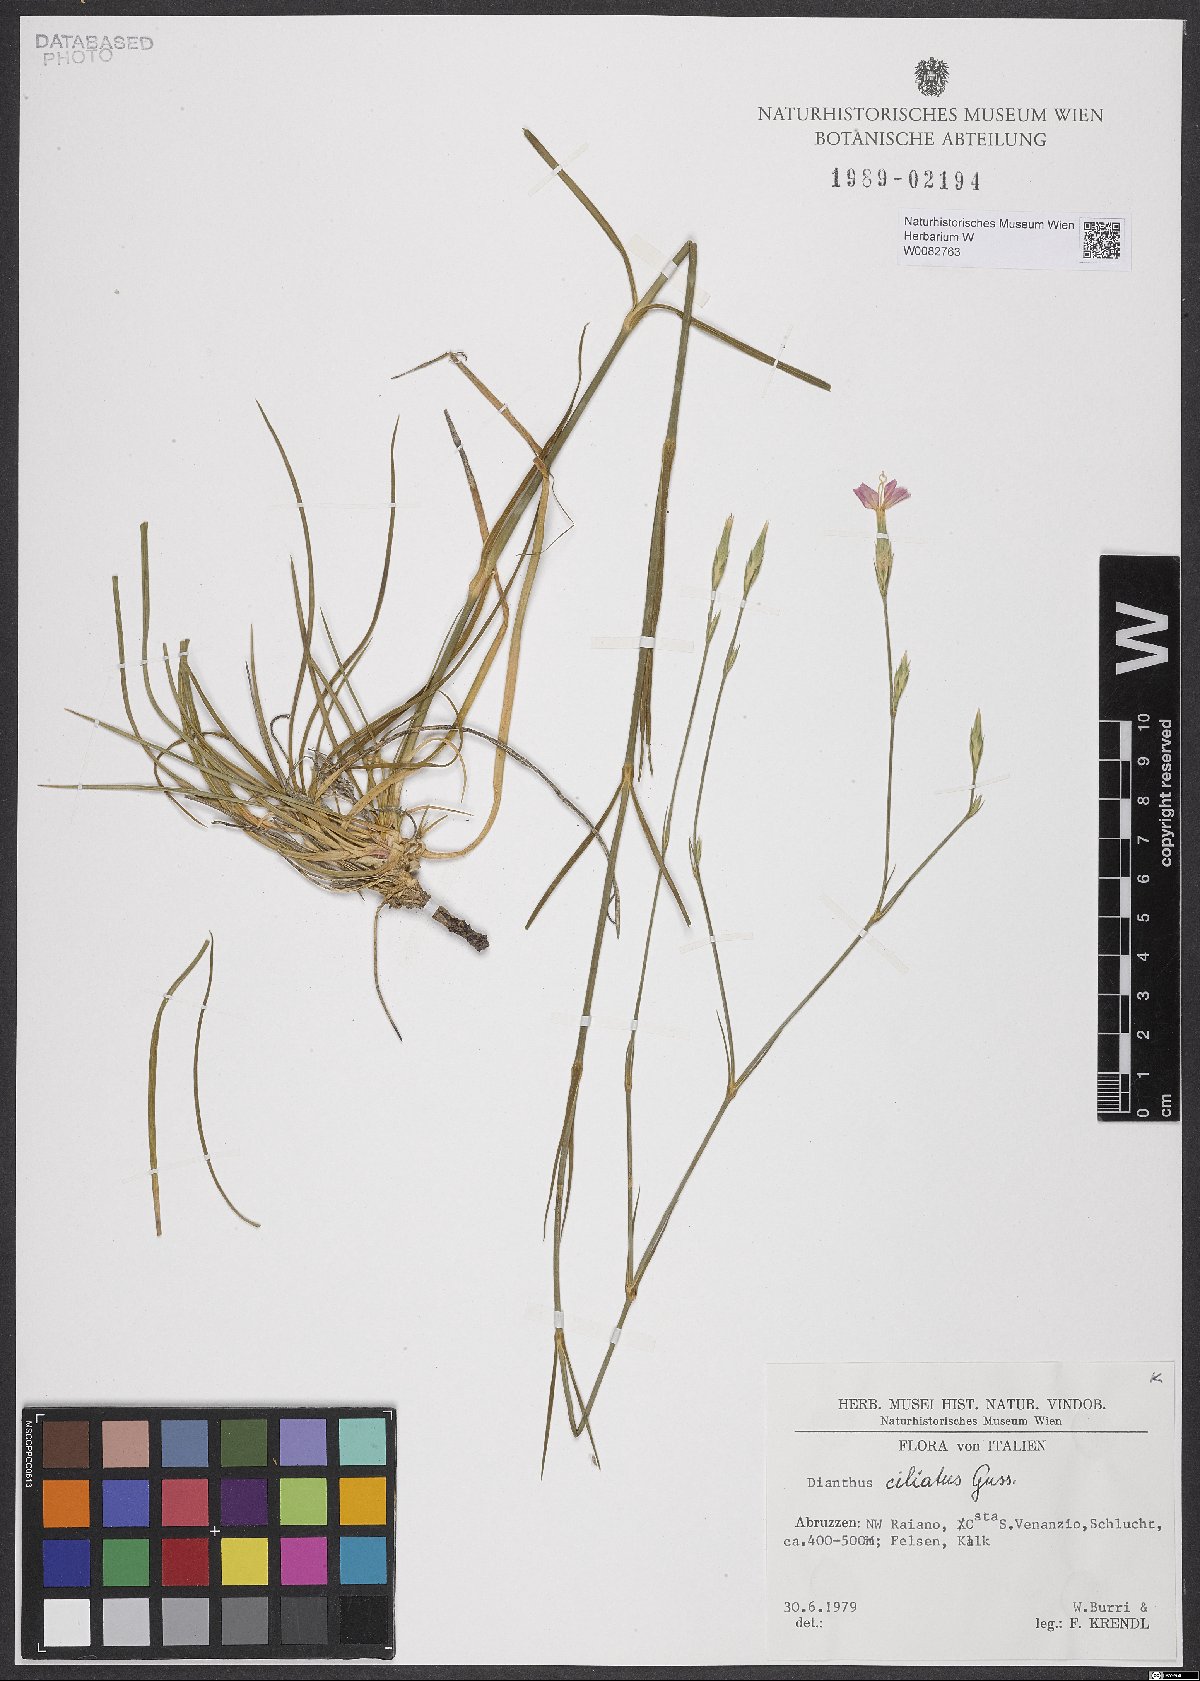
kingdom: Plantae
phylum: Tracheophyta
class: Magnoliopsida
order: Caryophyllales
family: Caryophyllaceae
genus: Dianthus
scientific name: Dianthus ciliatus
